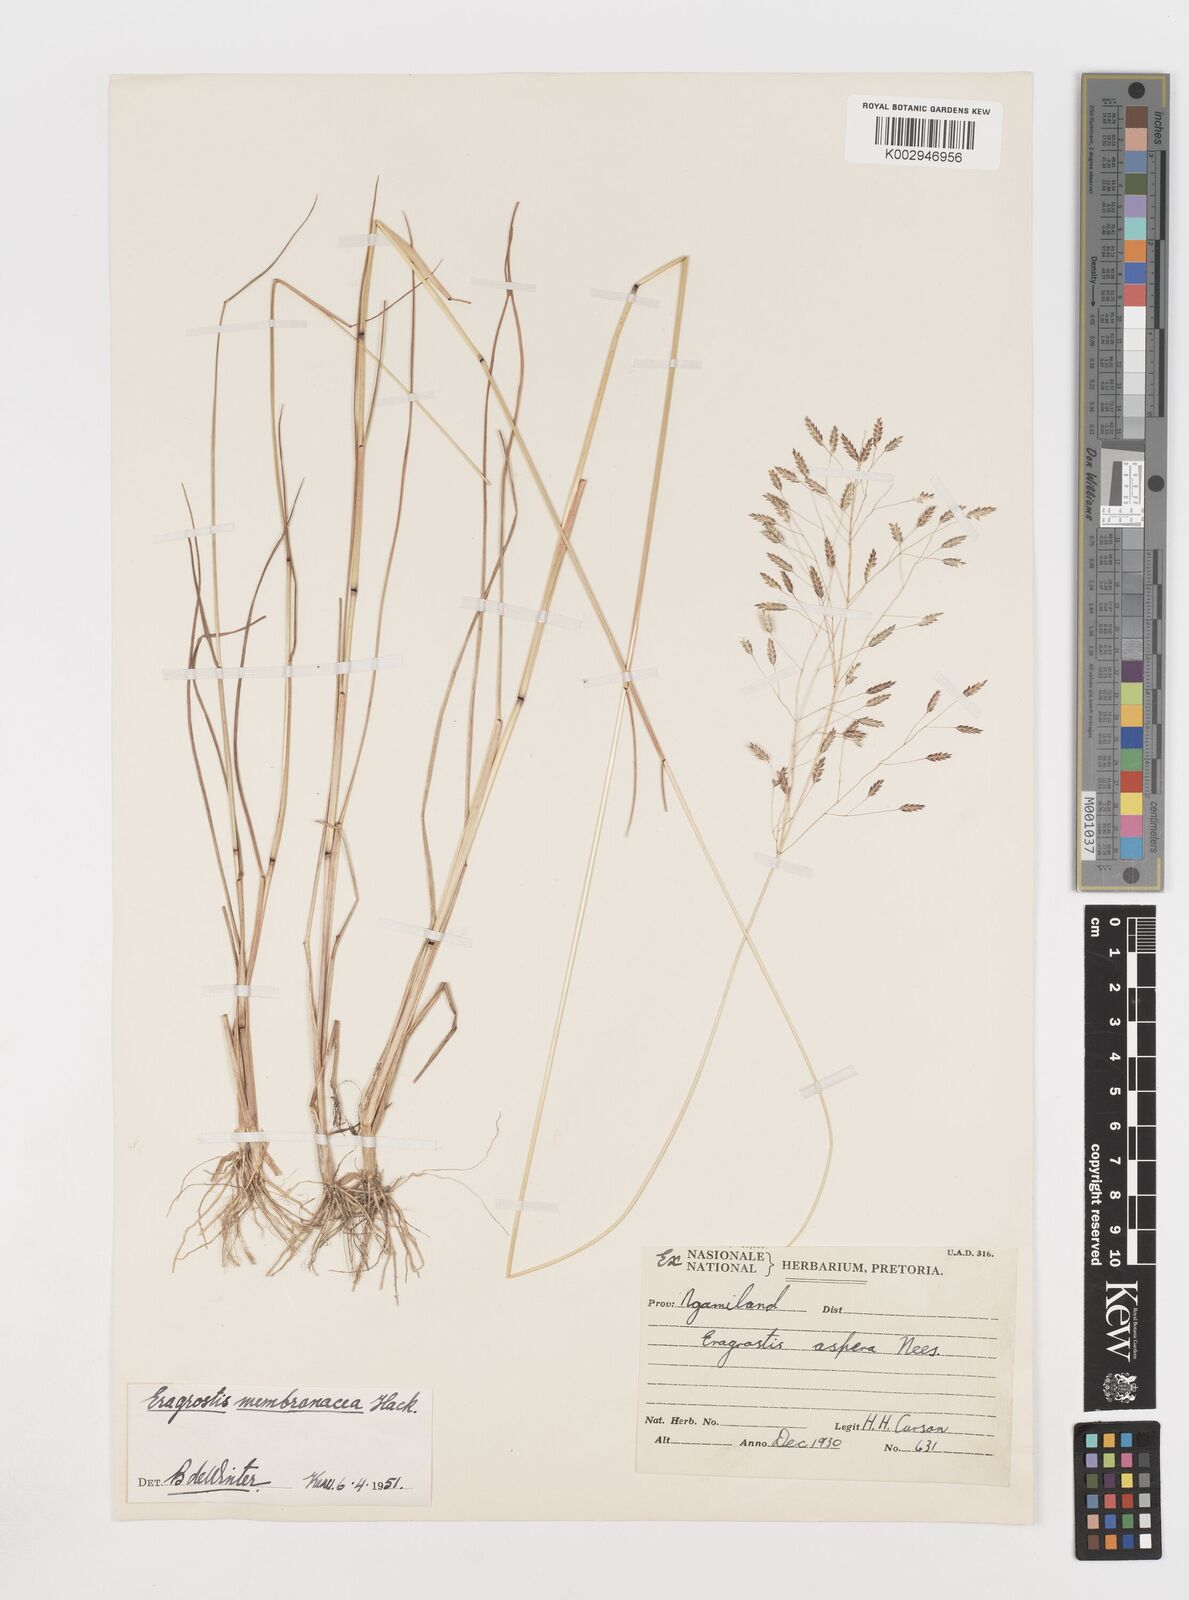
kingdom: Plantae
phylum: Tracheophyta
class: Liliopsida
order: Poales
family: Poaceae
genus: Eragrostis
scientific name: Eragrostis membranacea
